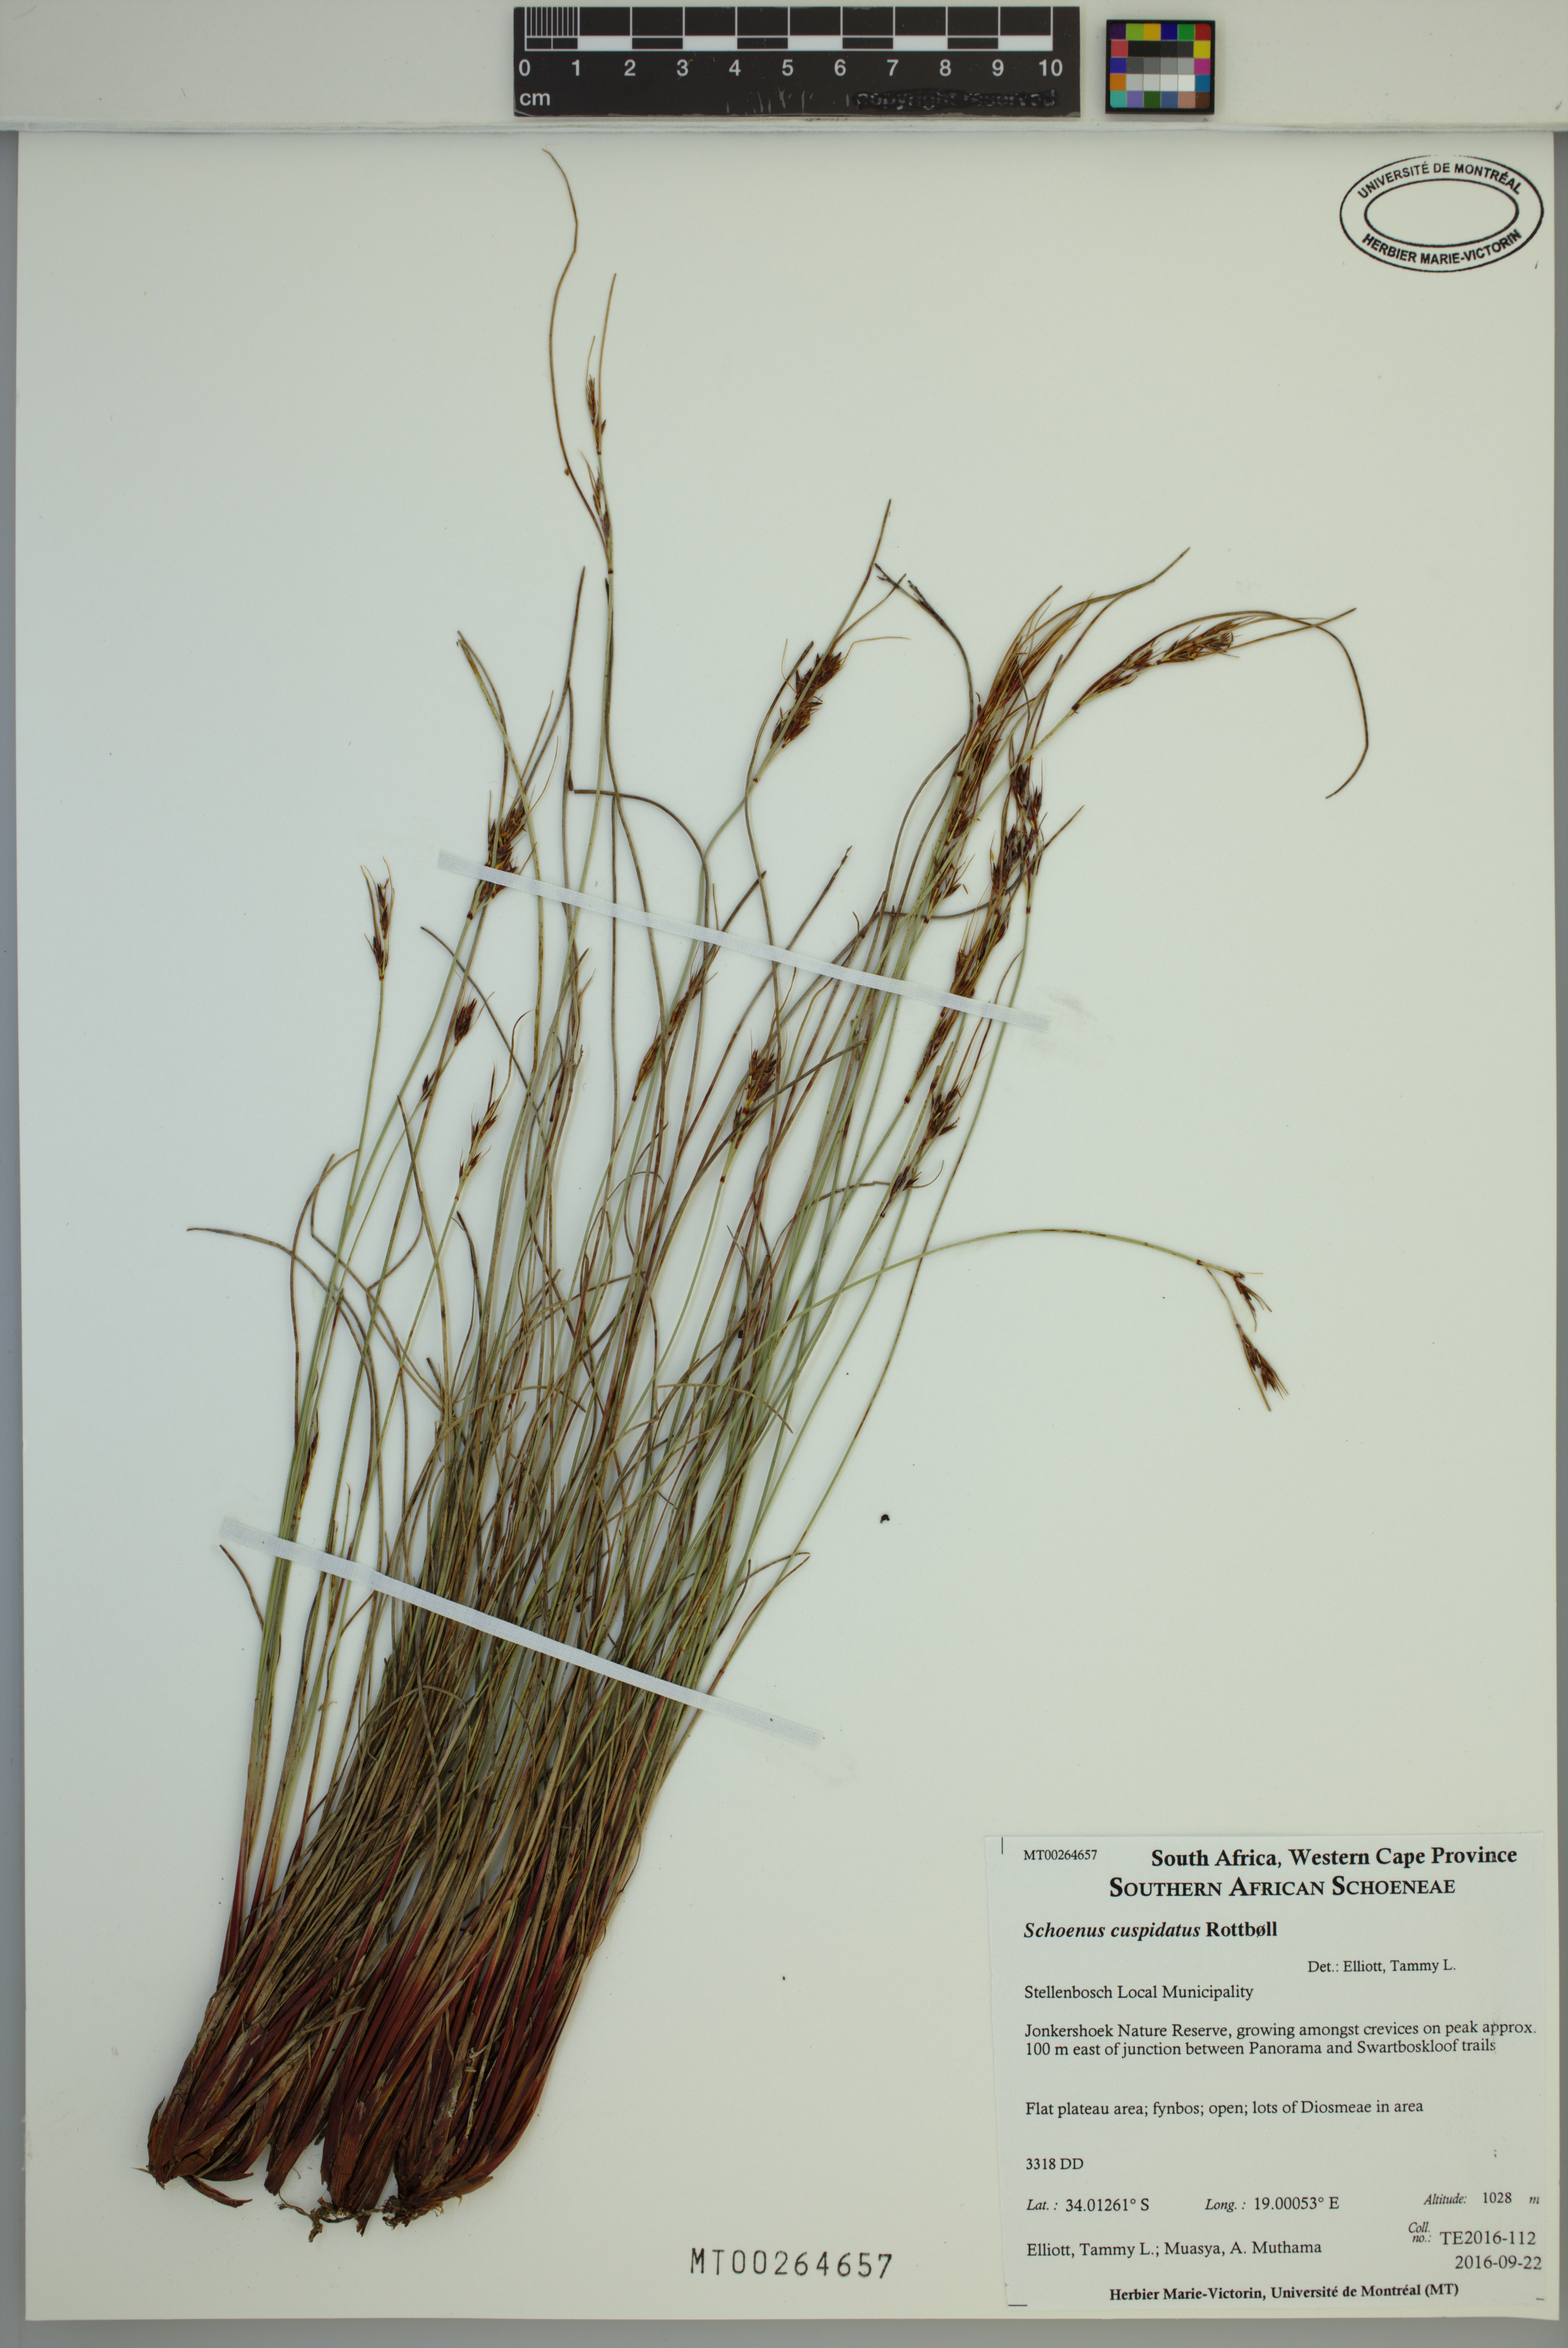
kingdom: Plantae
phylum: Tracheophyta
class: Liliopsida
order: Poales
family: Cyperaceae
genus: Schoenus
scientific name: Schoenus cuspidatus
